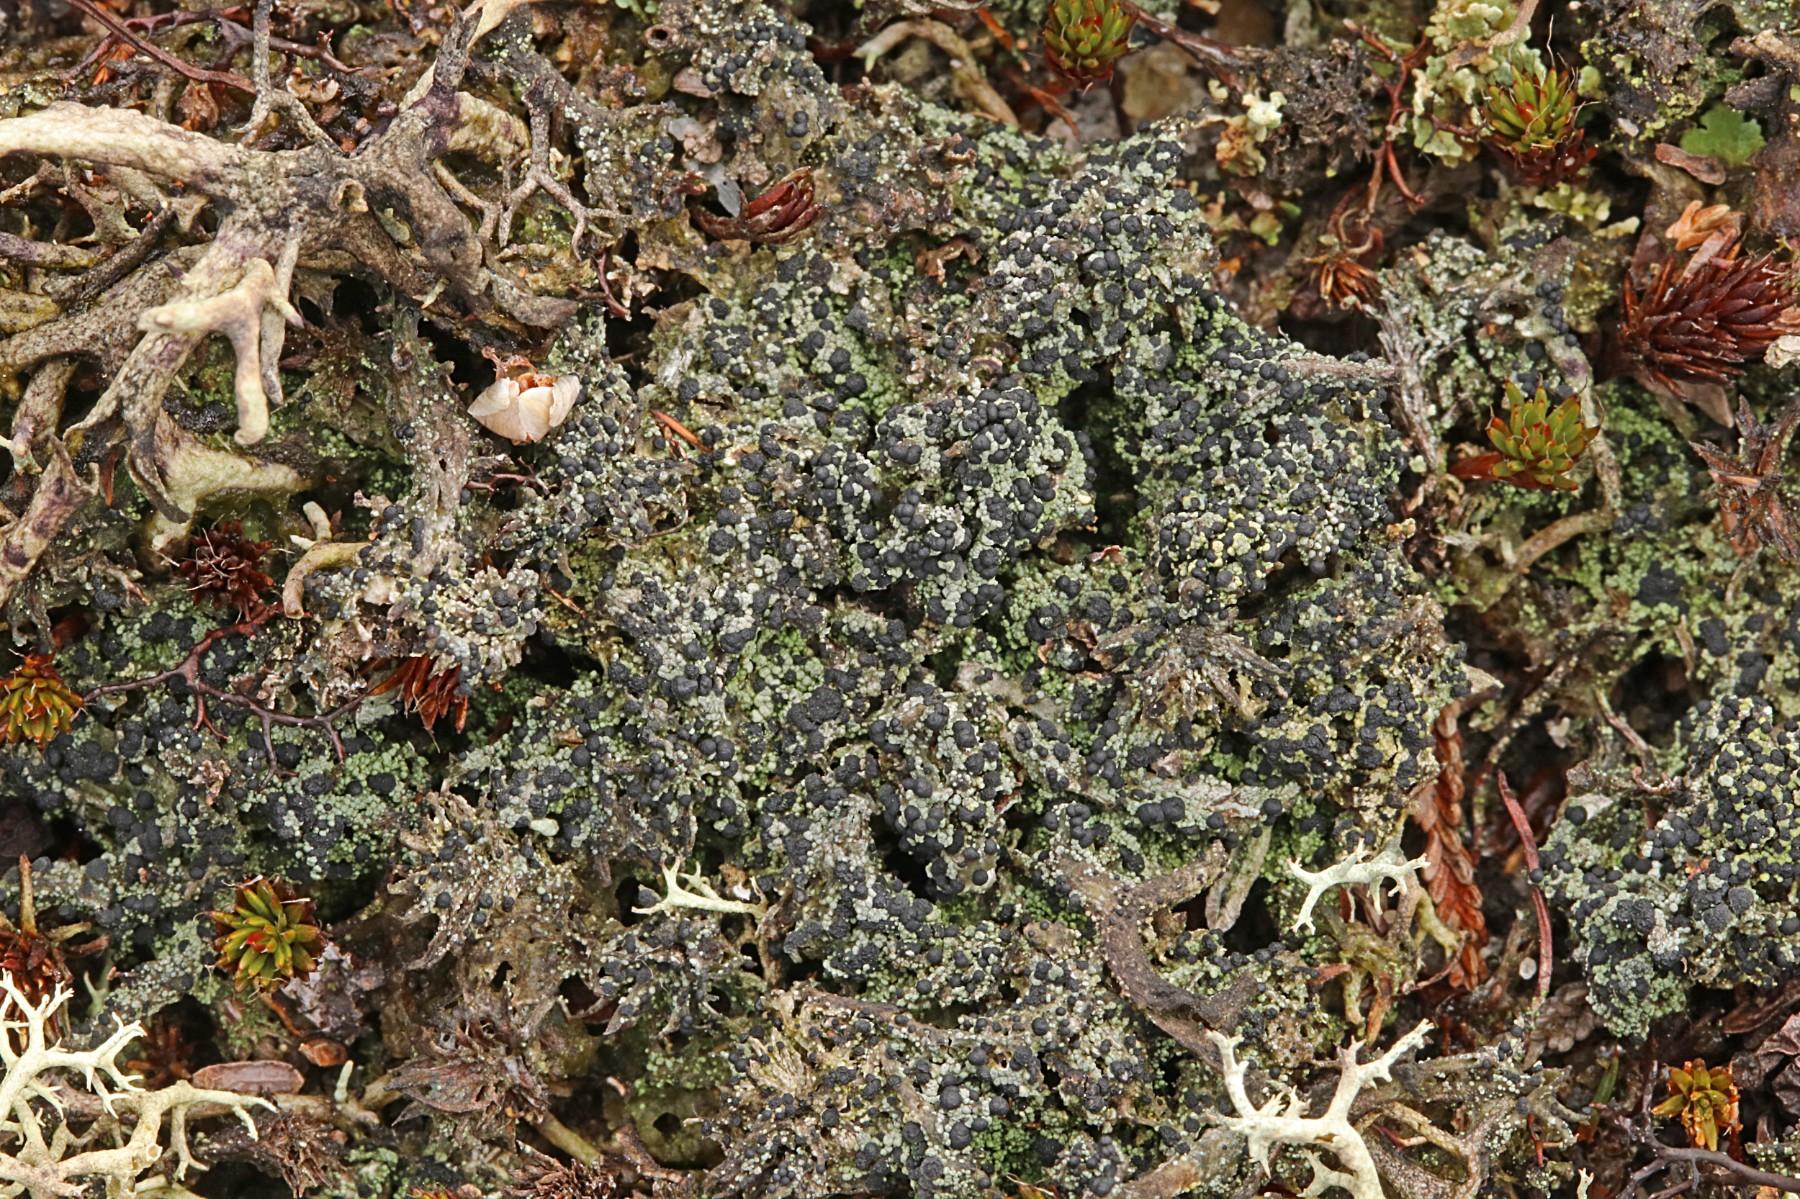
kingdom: Fungi
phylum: Ascomycota
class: Lecanoromycetes
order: Lecanorales
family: Byssolomataceae
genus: Micarea
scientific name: Micarea lignaria
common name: tørve-knaplav
